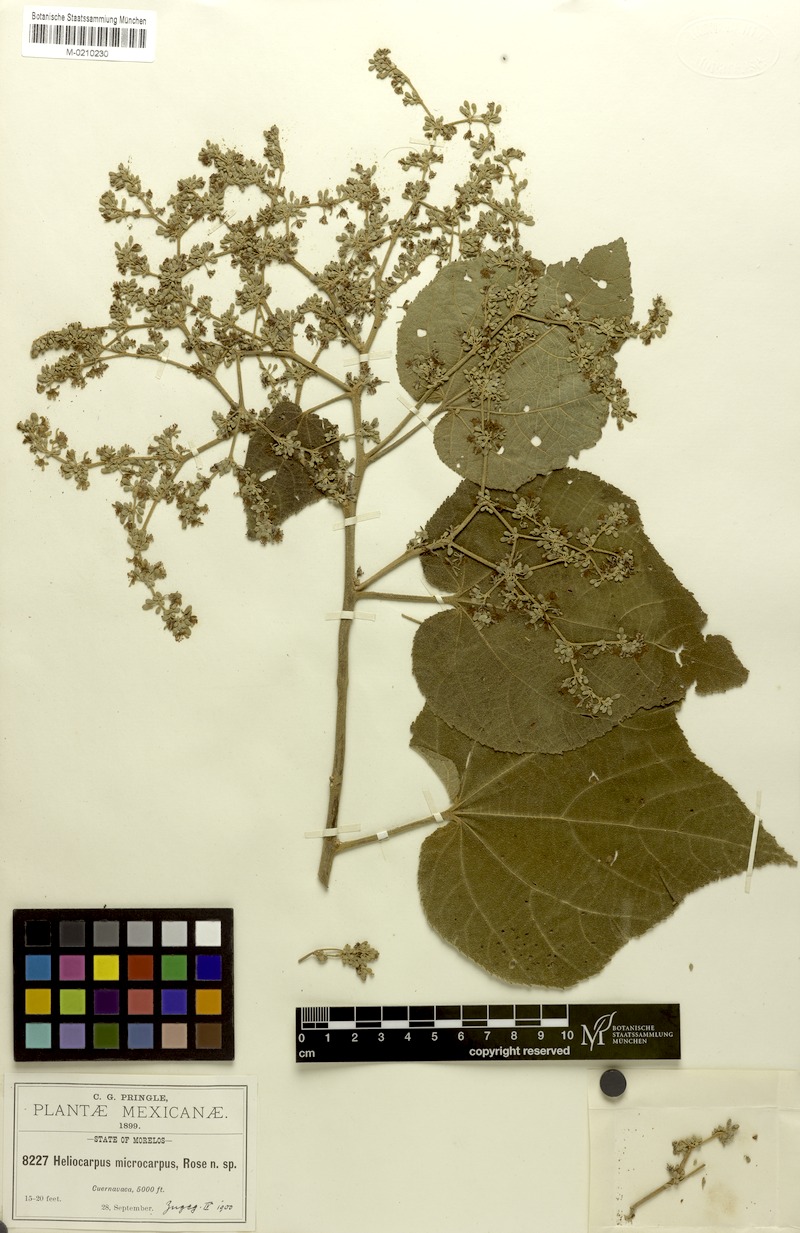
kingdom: Plantae
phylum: Tracheophyta
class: Magnoliopsida
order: Malvales
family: Malvaceae
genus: Heliocarpus
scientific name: Heliocarpus terebinthinaceus
